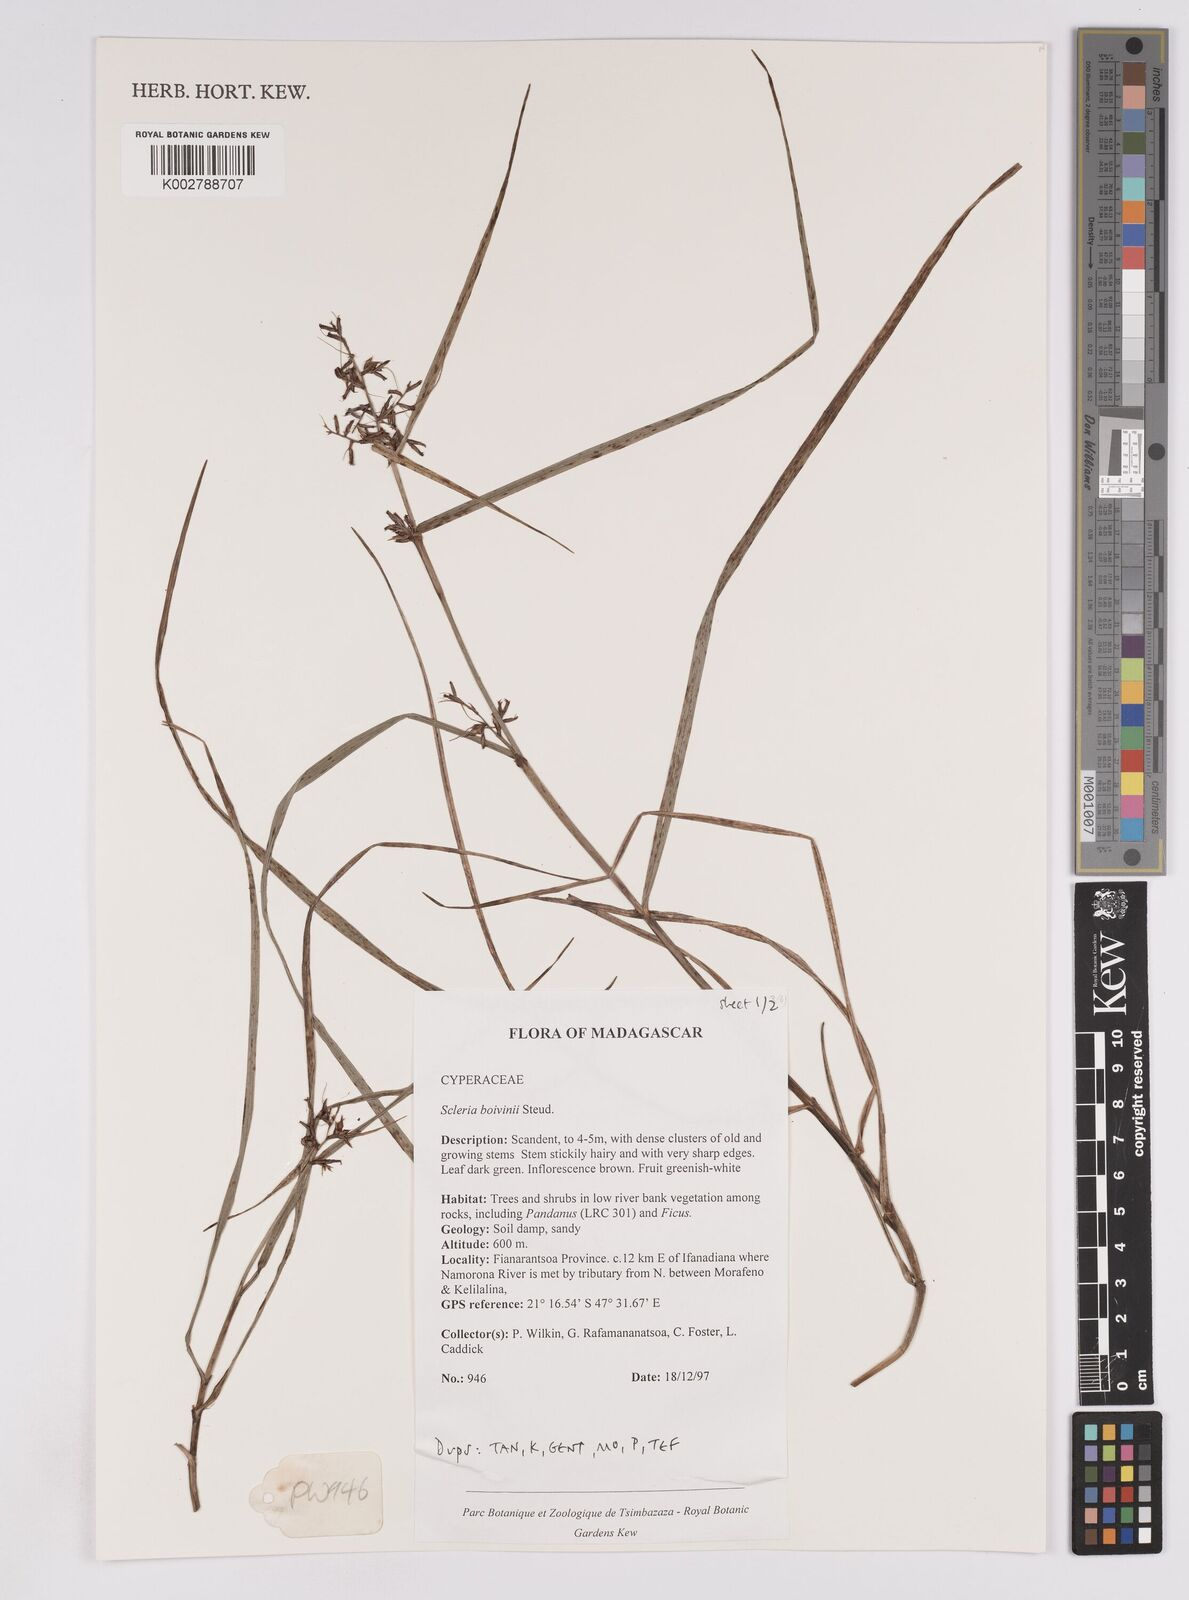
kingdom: Plantae
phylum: Tracheophyta
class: Liliopsida
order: Poales
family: Cyperaceae
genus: Scleria
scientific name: Scleria boivinii
